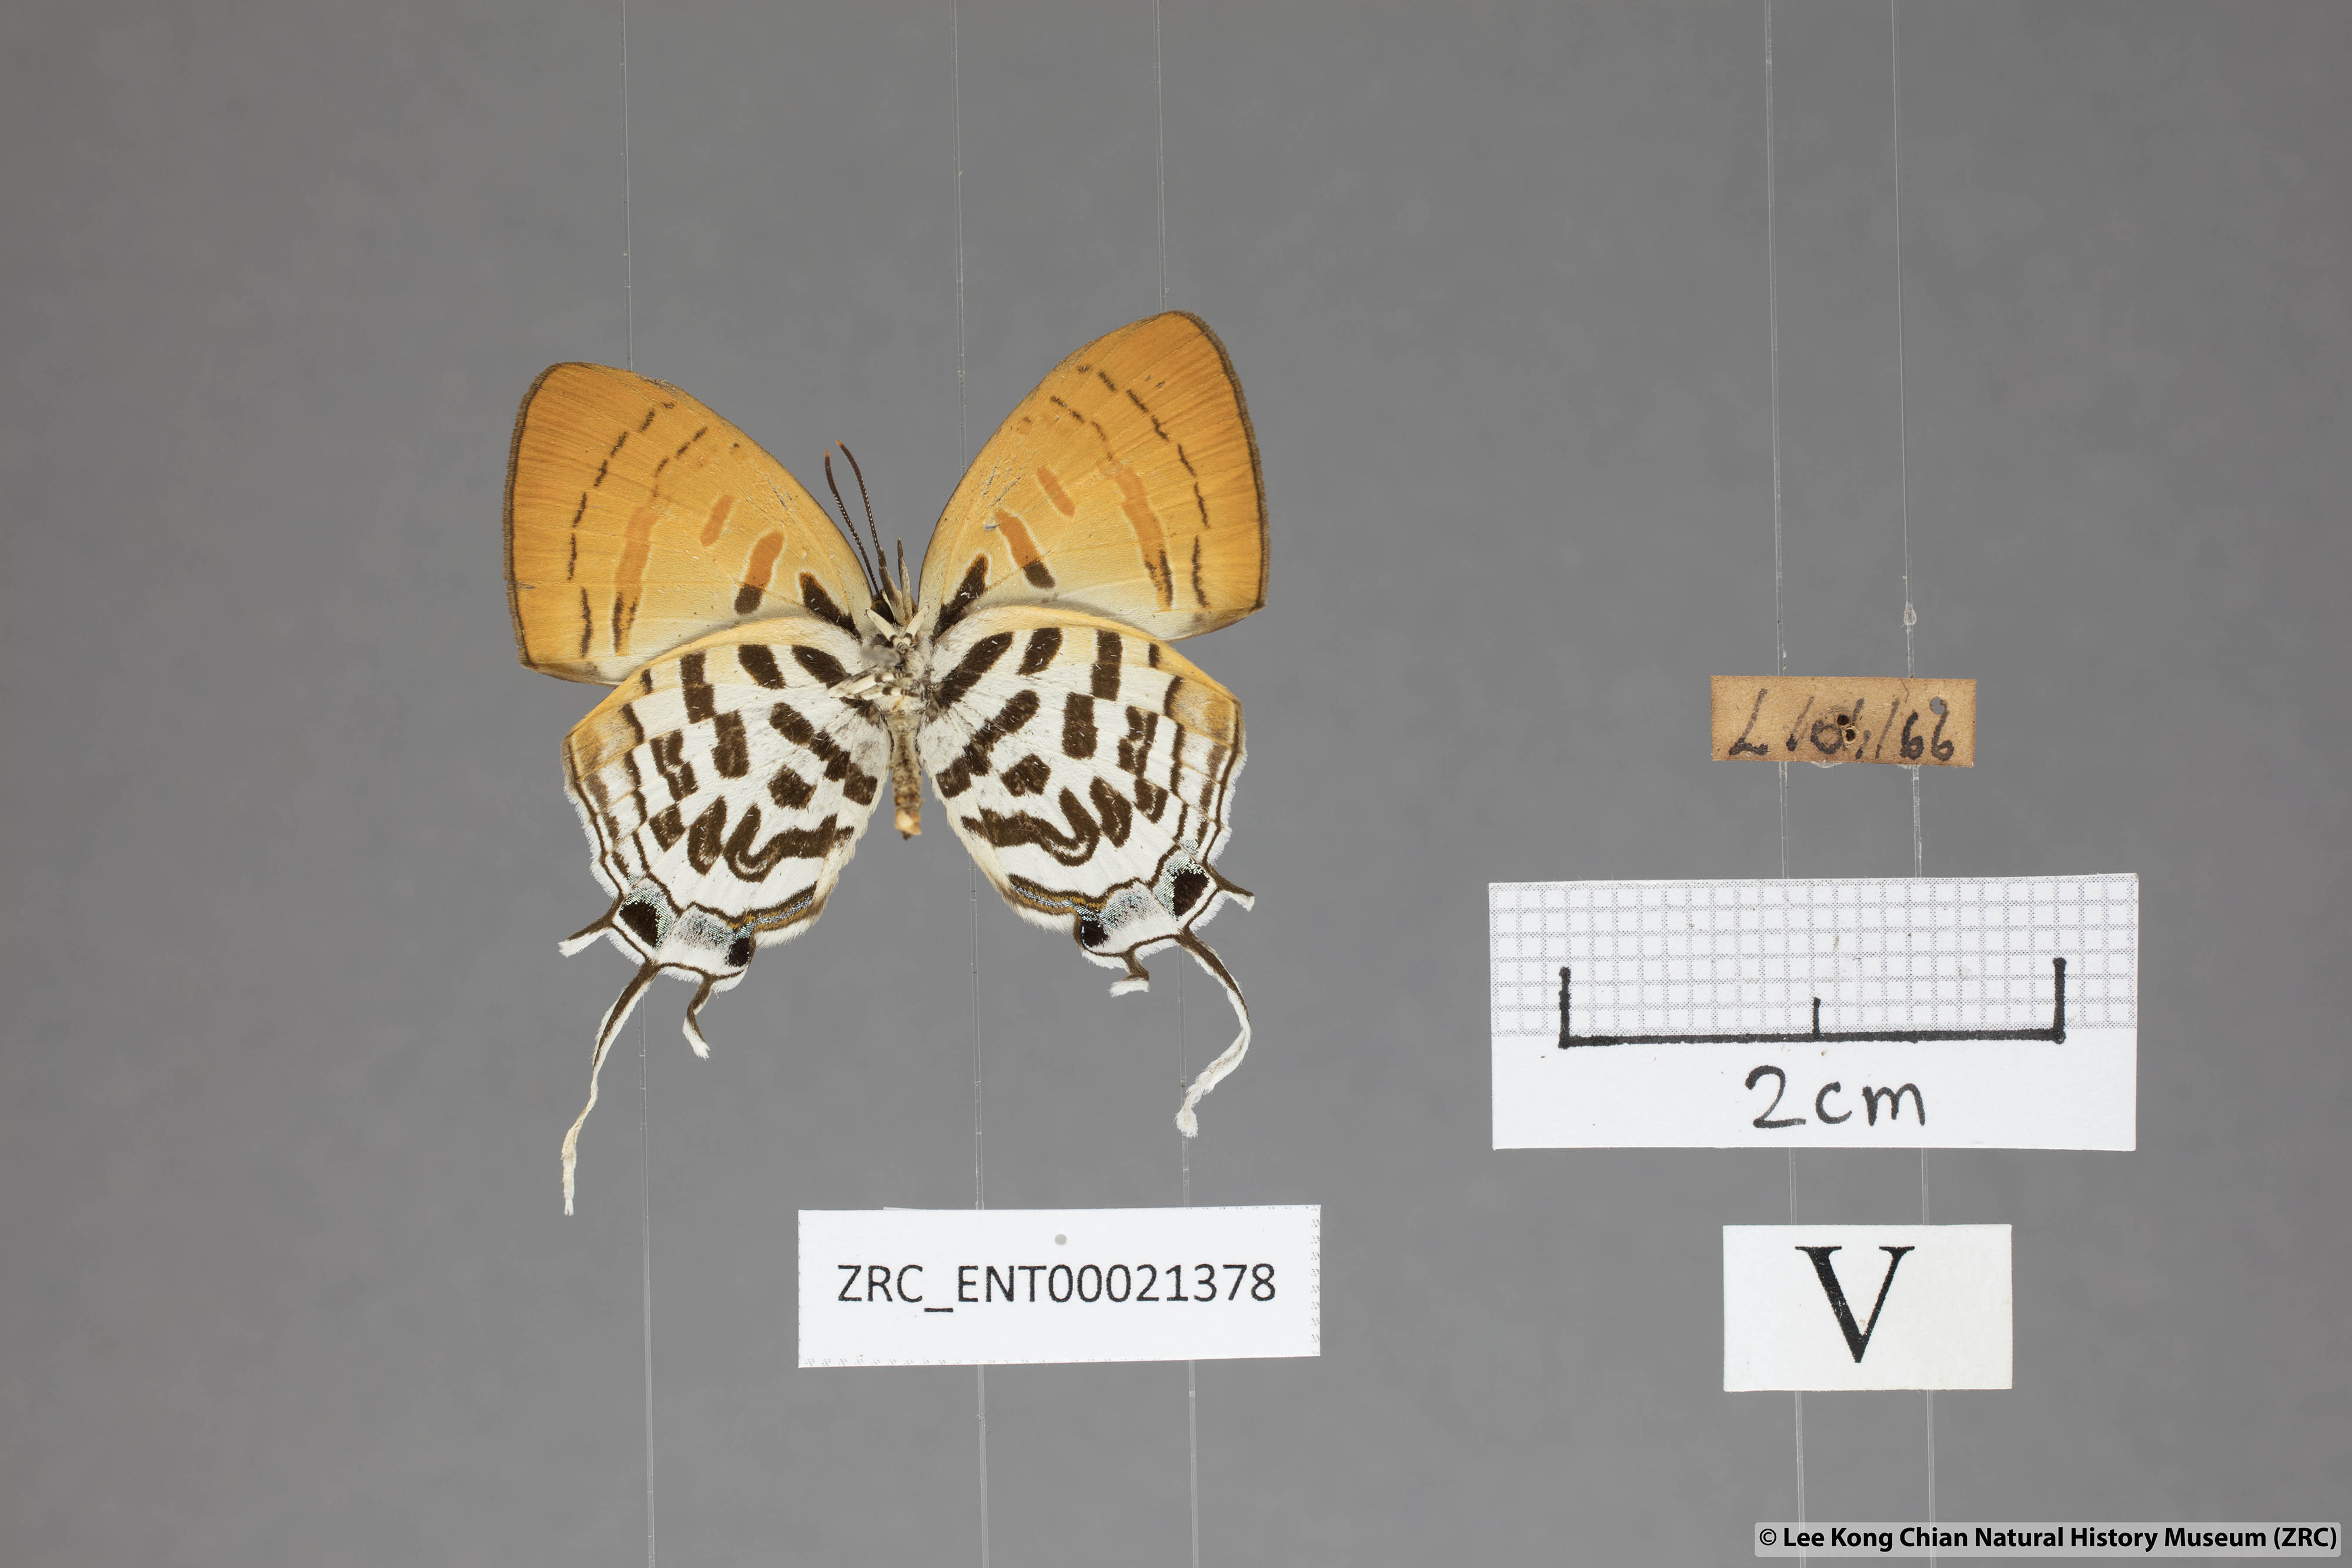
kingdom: Animalia
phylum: Arthropoda
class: Insecta
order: Lepidoptera
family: Lycaenidae
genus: Drupadia
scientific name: Drupadia ravindra
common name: Common posy
